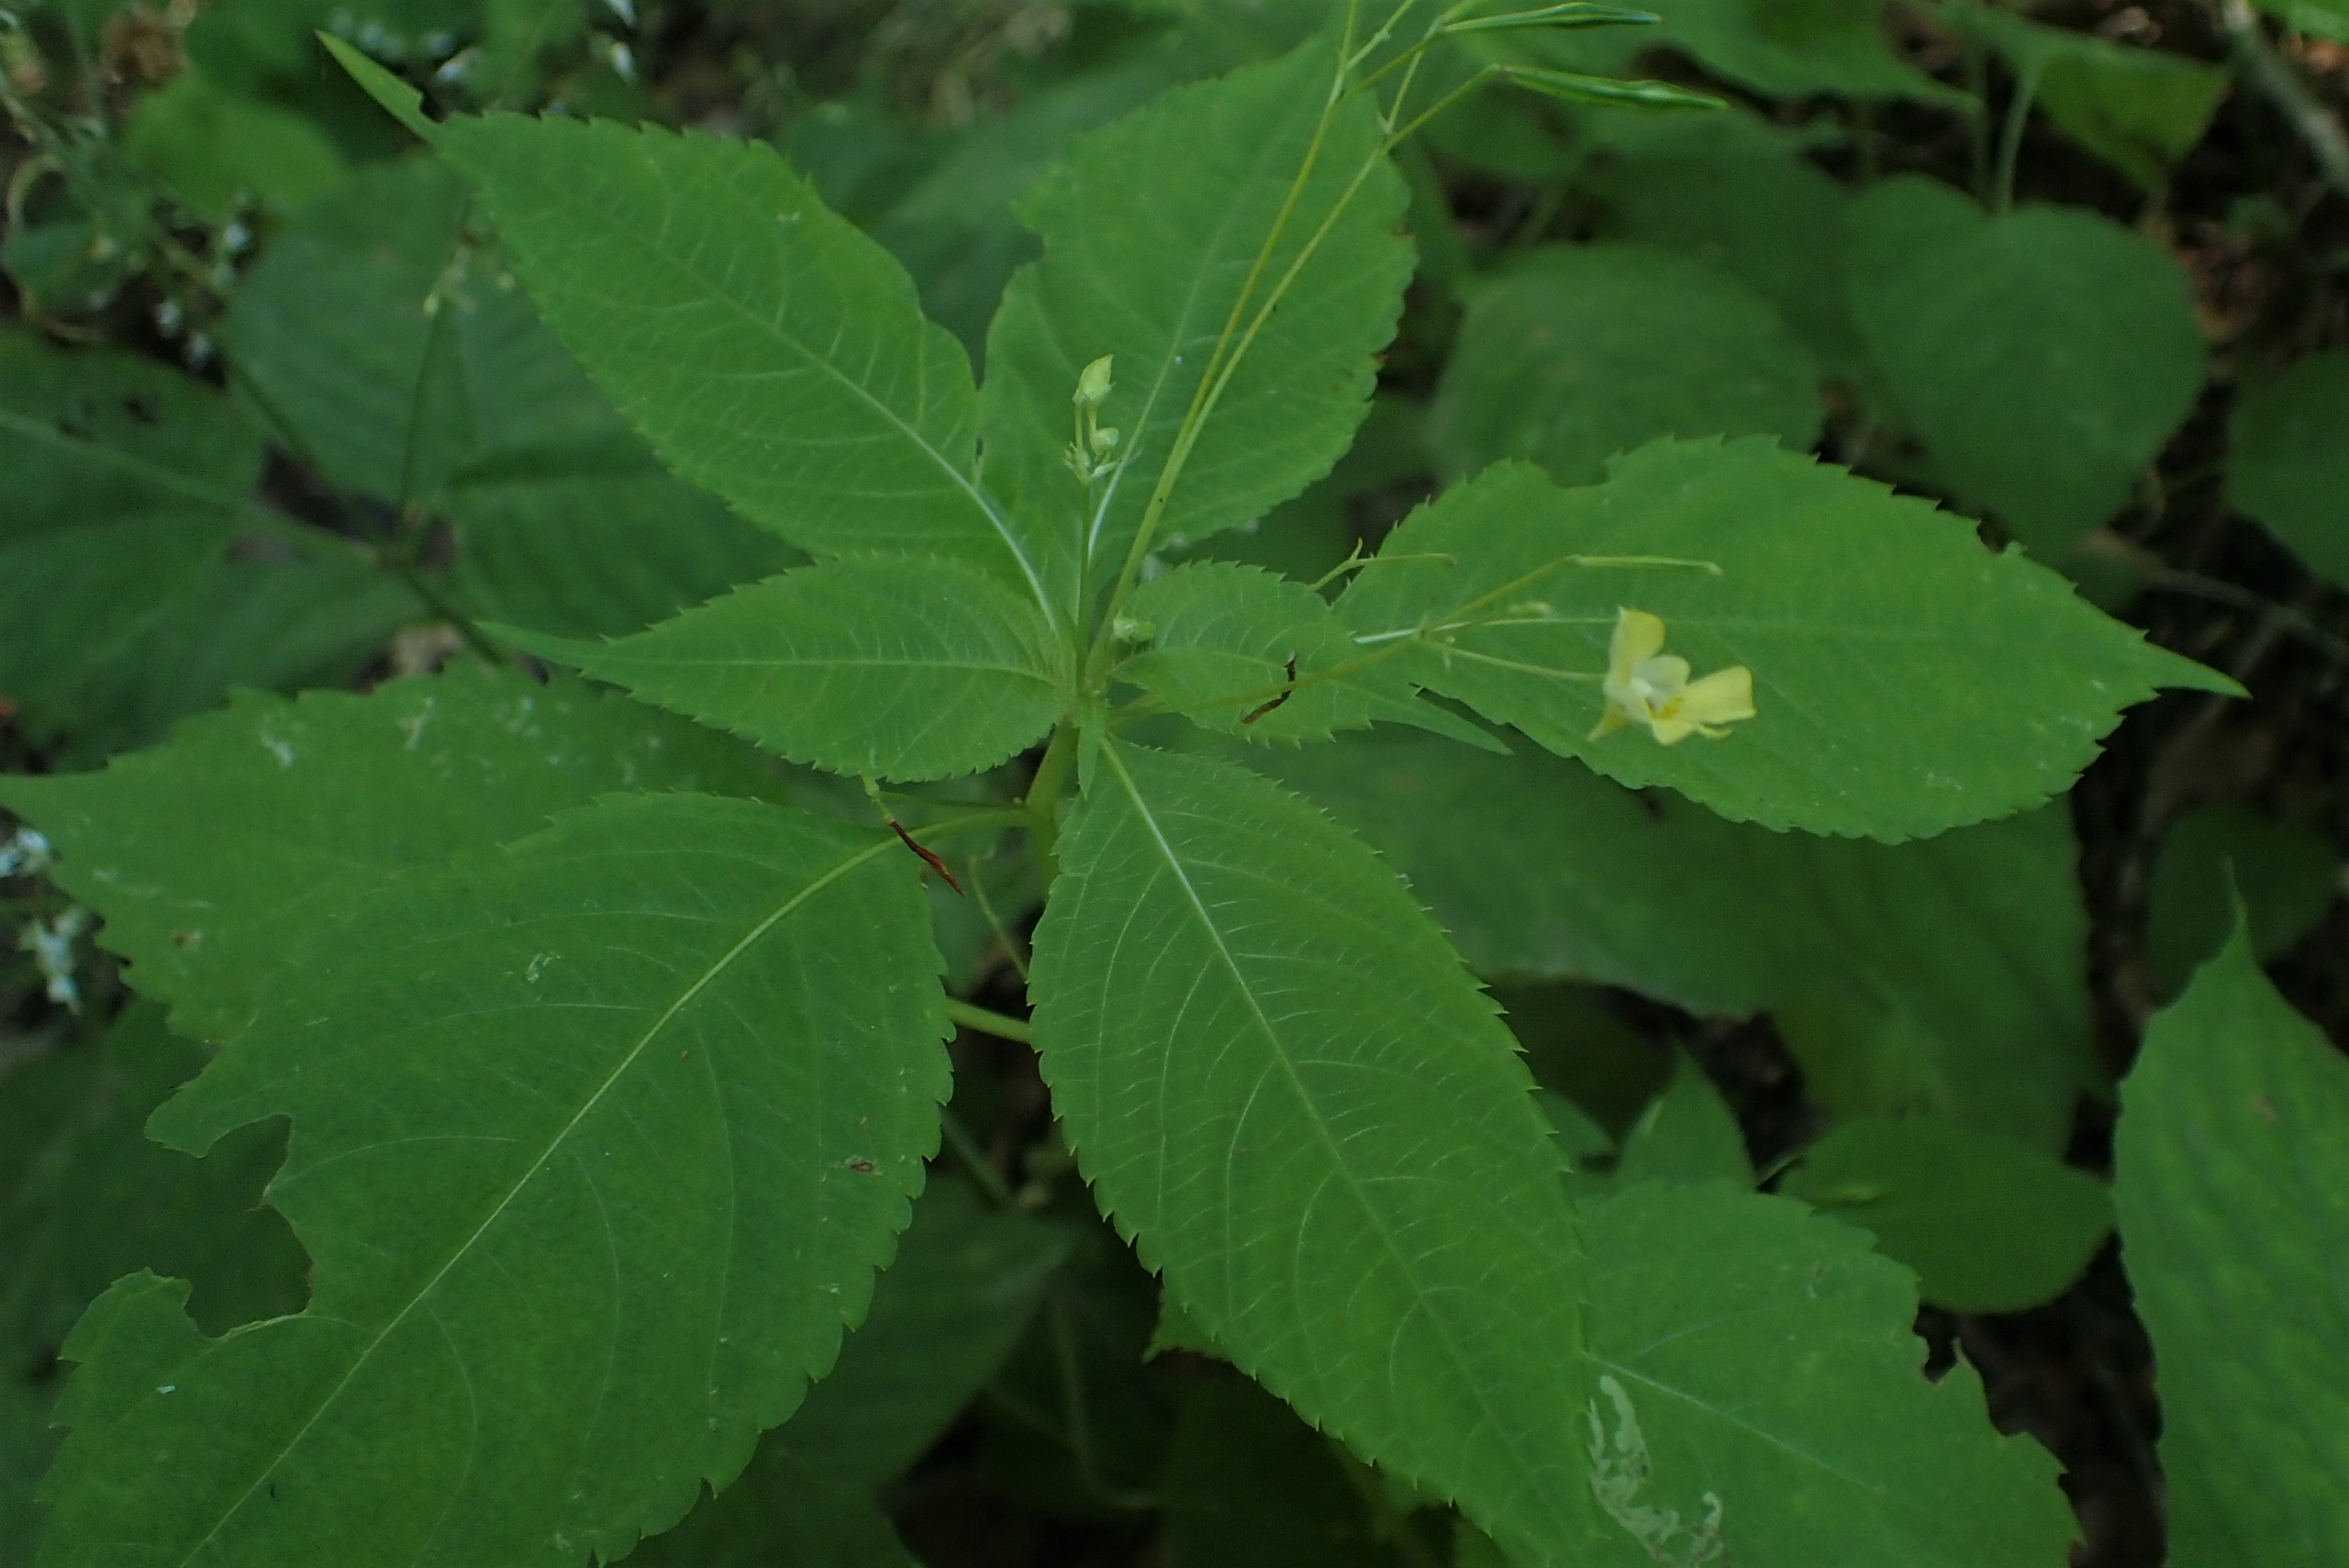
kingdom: Plantae
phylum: Tracheophyta
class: Magnoliopsida
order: Ericales
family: Balsaminaceae
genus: Impatiens
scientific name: Impatiens parviflora
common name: Småblomstret balsamin
